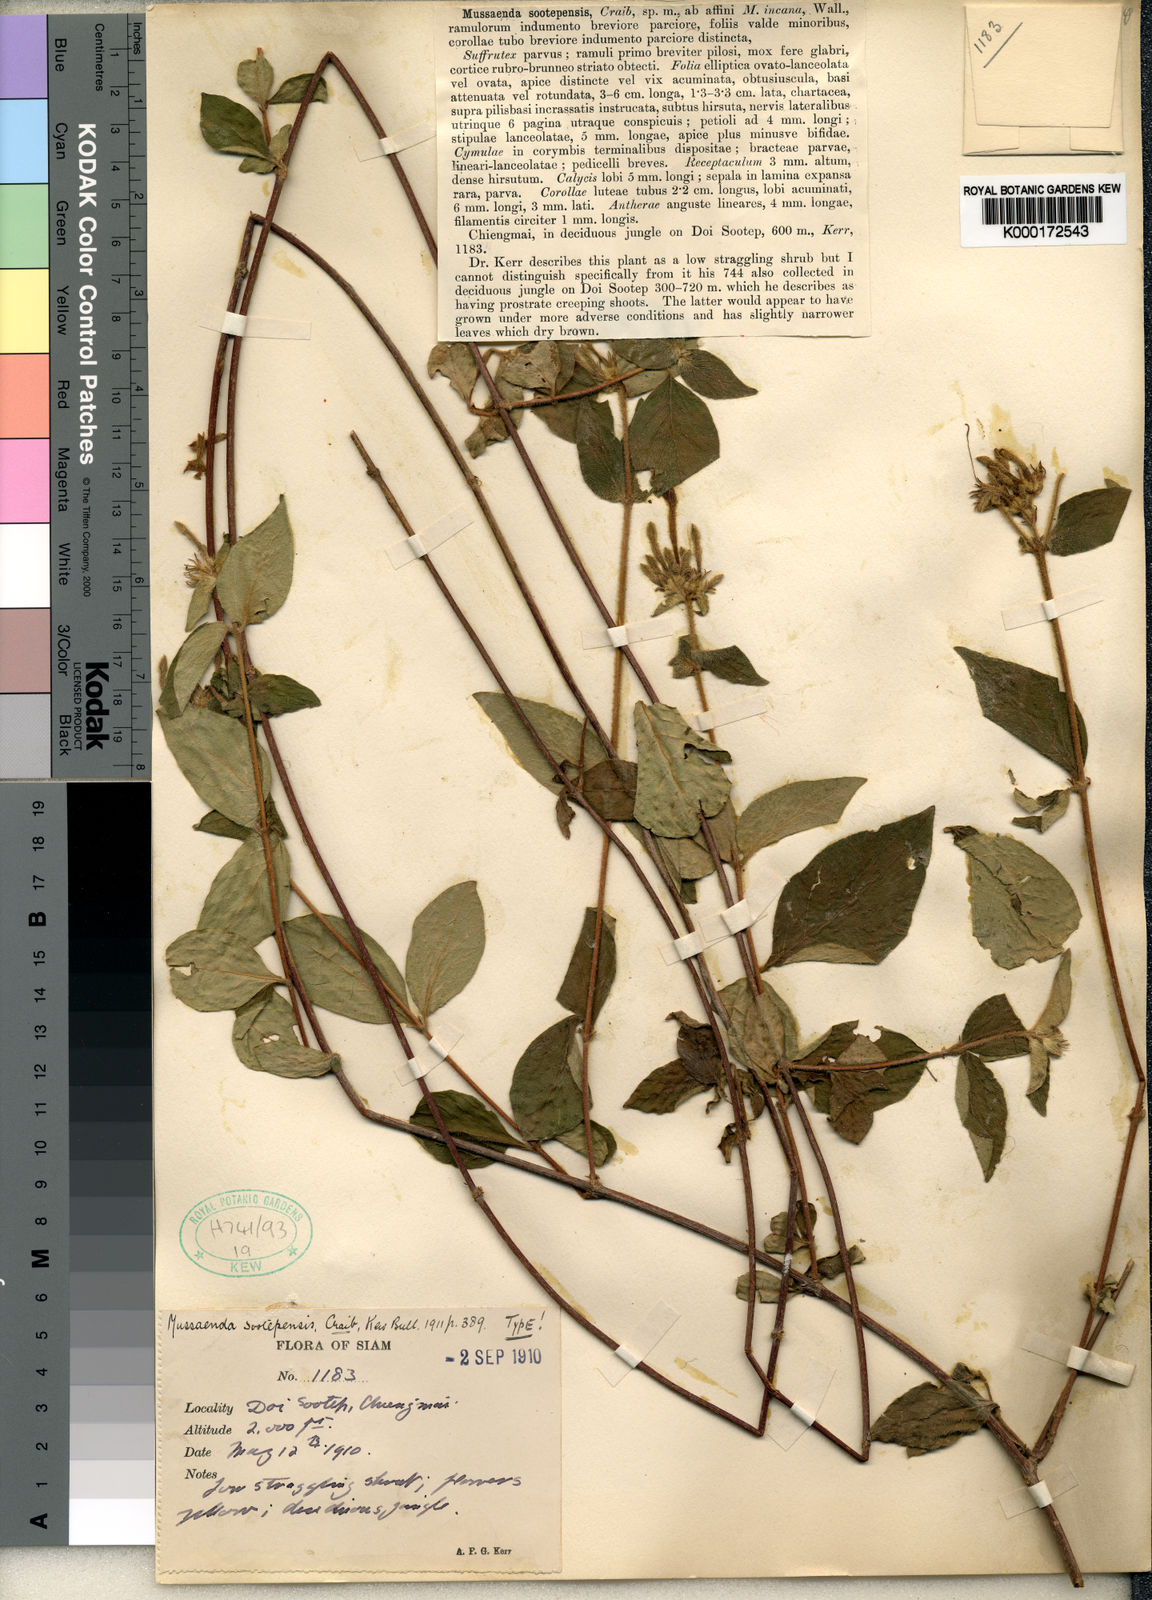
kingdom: Plantae
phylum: Tracheophyta
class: Magnoliopsida
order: Gentianales
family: Rubiaceae
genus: Mussaenda
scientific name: Mussaenda parva
